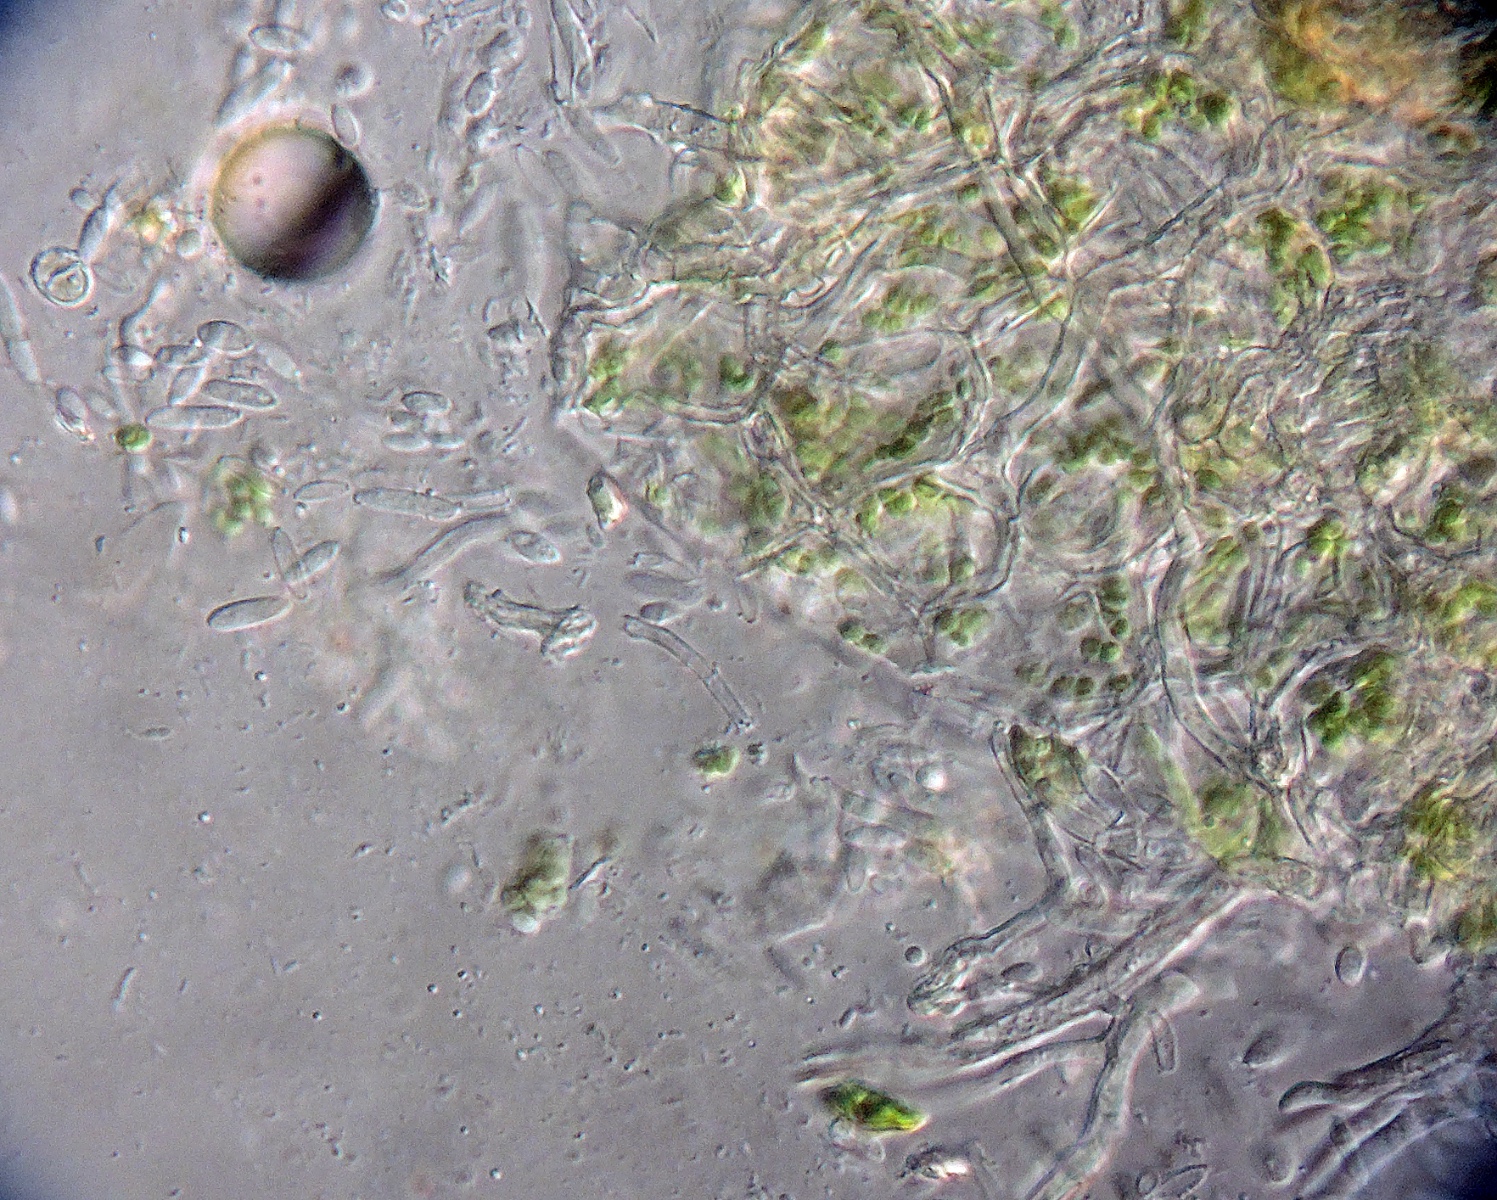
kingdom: Fungi
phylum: Ascomycota
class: Dothideomycetes
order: Mycosphaerellales
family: Mycosphaerellaceae
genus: Ramularia
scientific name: Ramularia lactea
